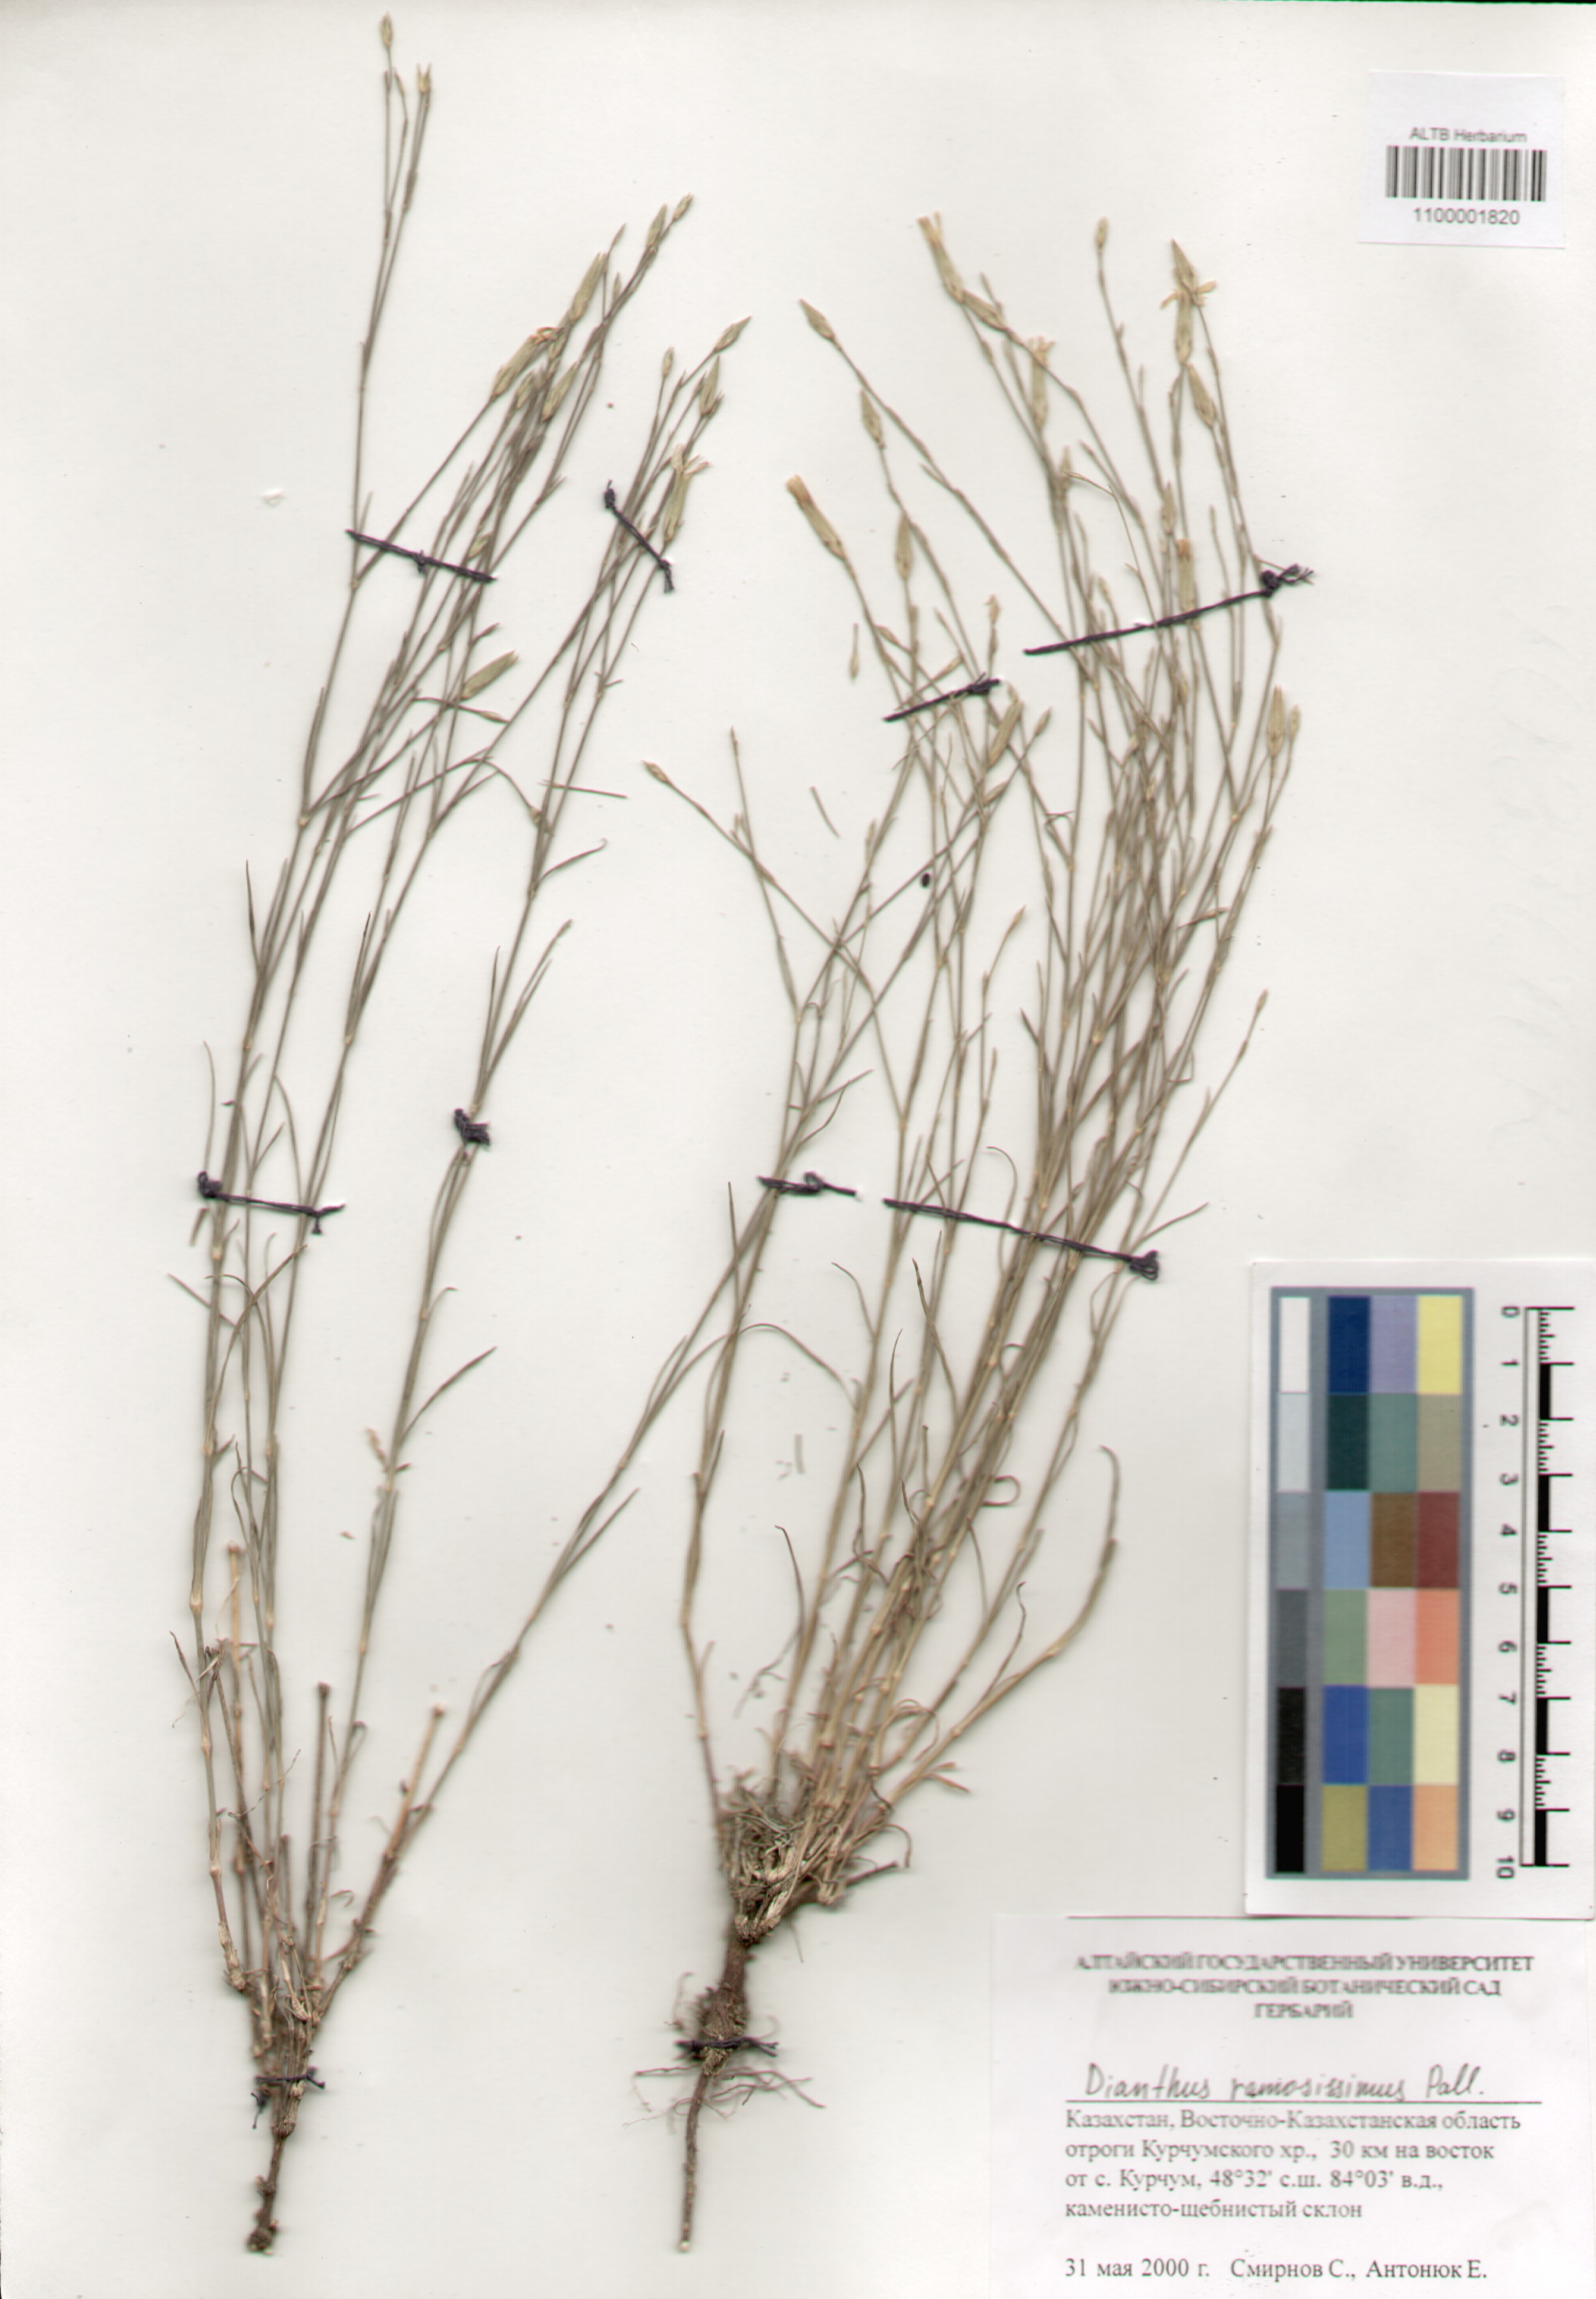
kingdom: Plantae
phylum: Tracheophyta
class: Magnoliopsida
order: Caryophyllales
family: Caryophyllaceae
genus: Dianthus
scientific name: Dianthus ramosissimus
